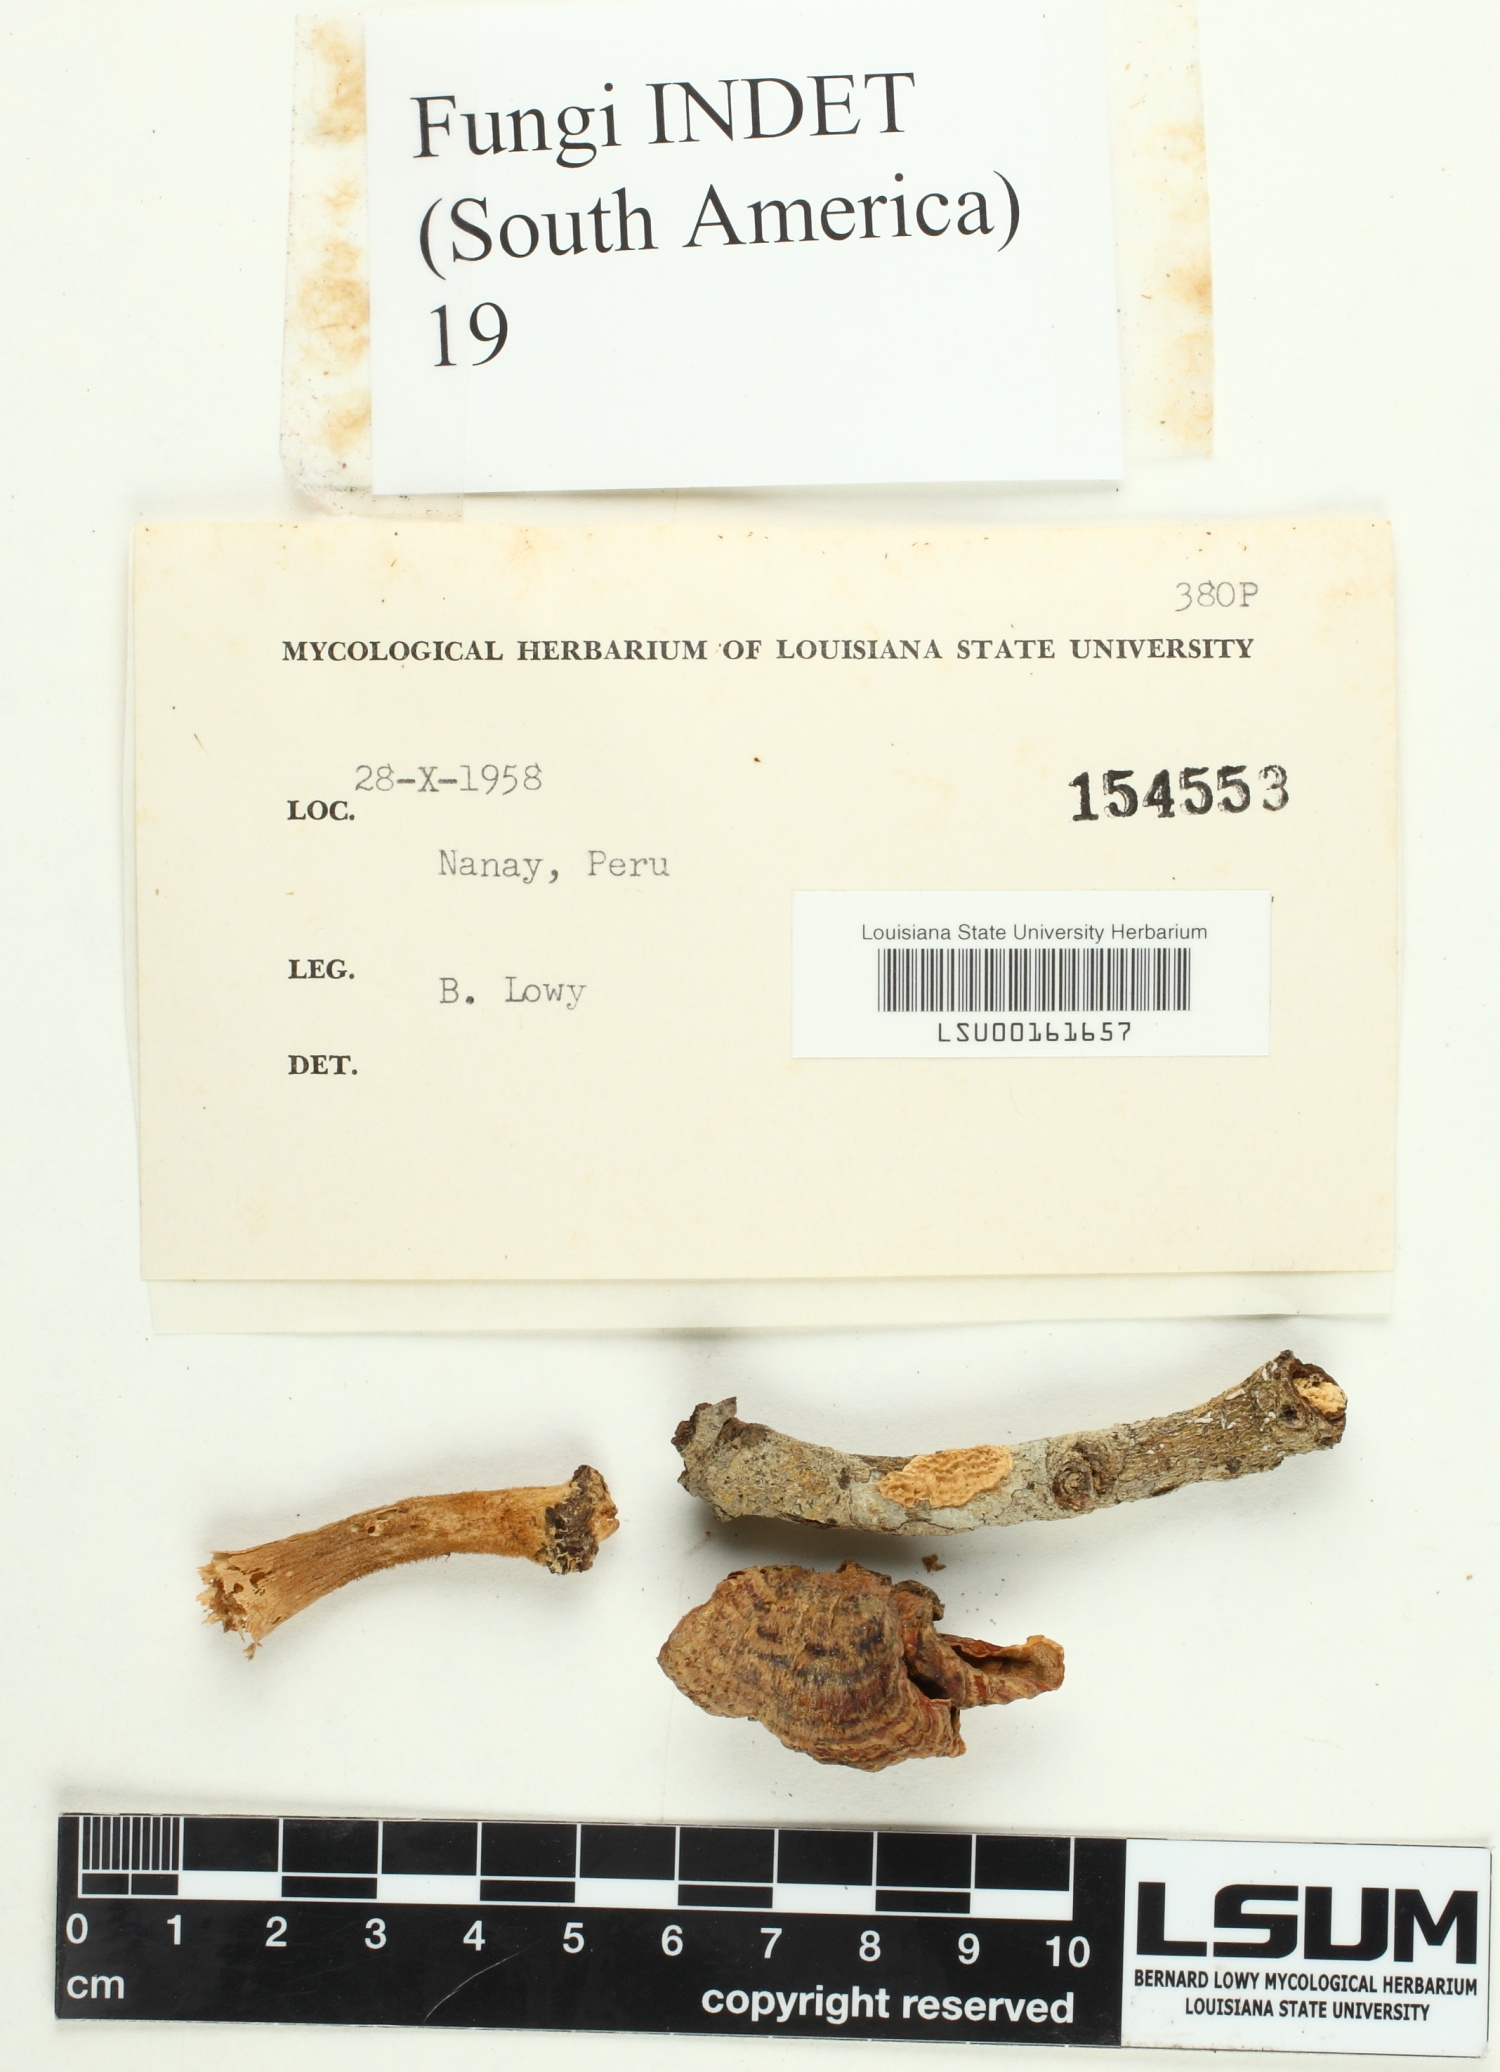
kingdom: Fungi
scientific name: Fungi
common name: Fungi
